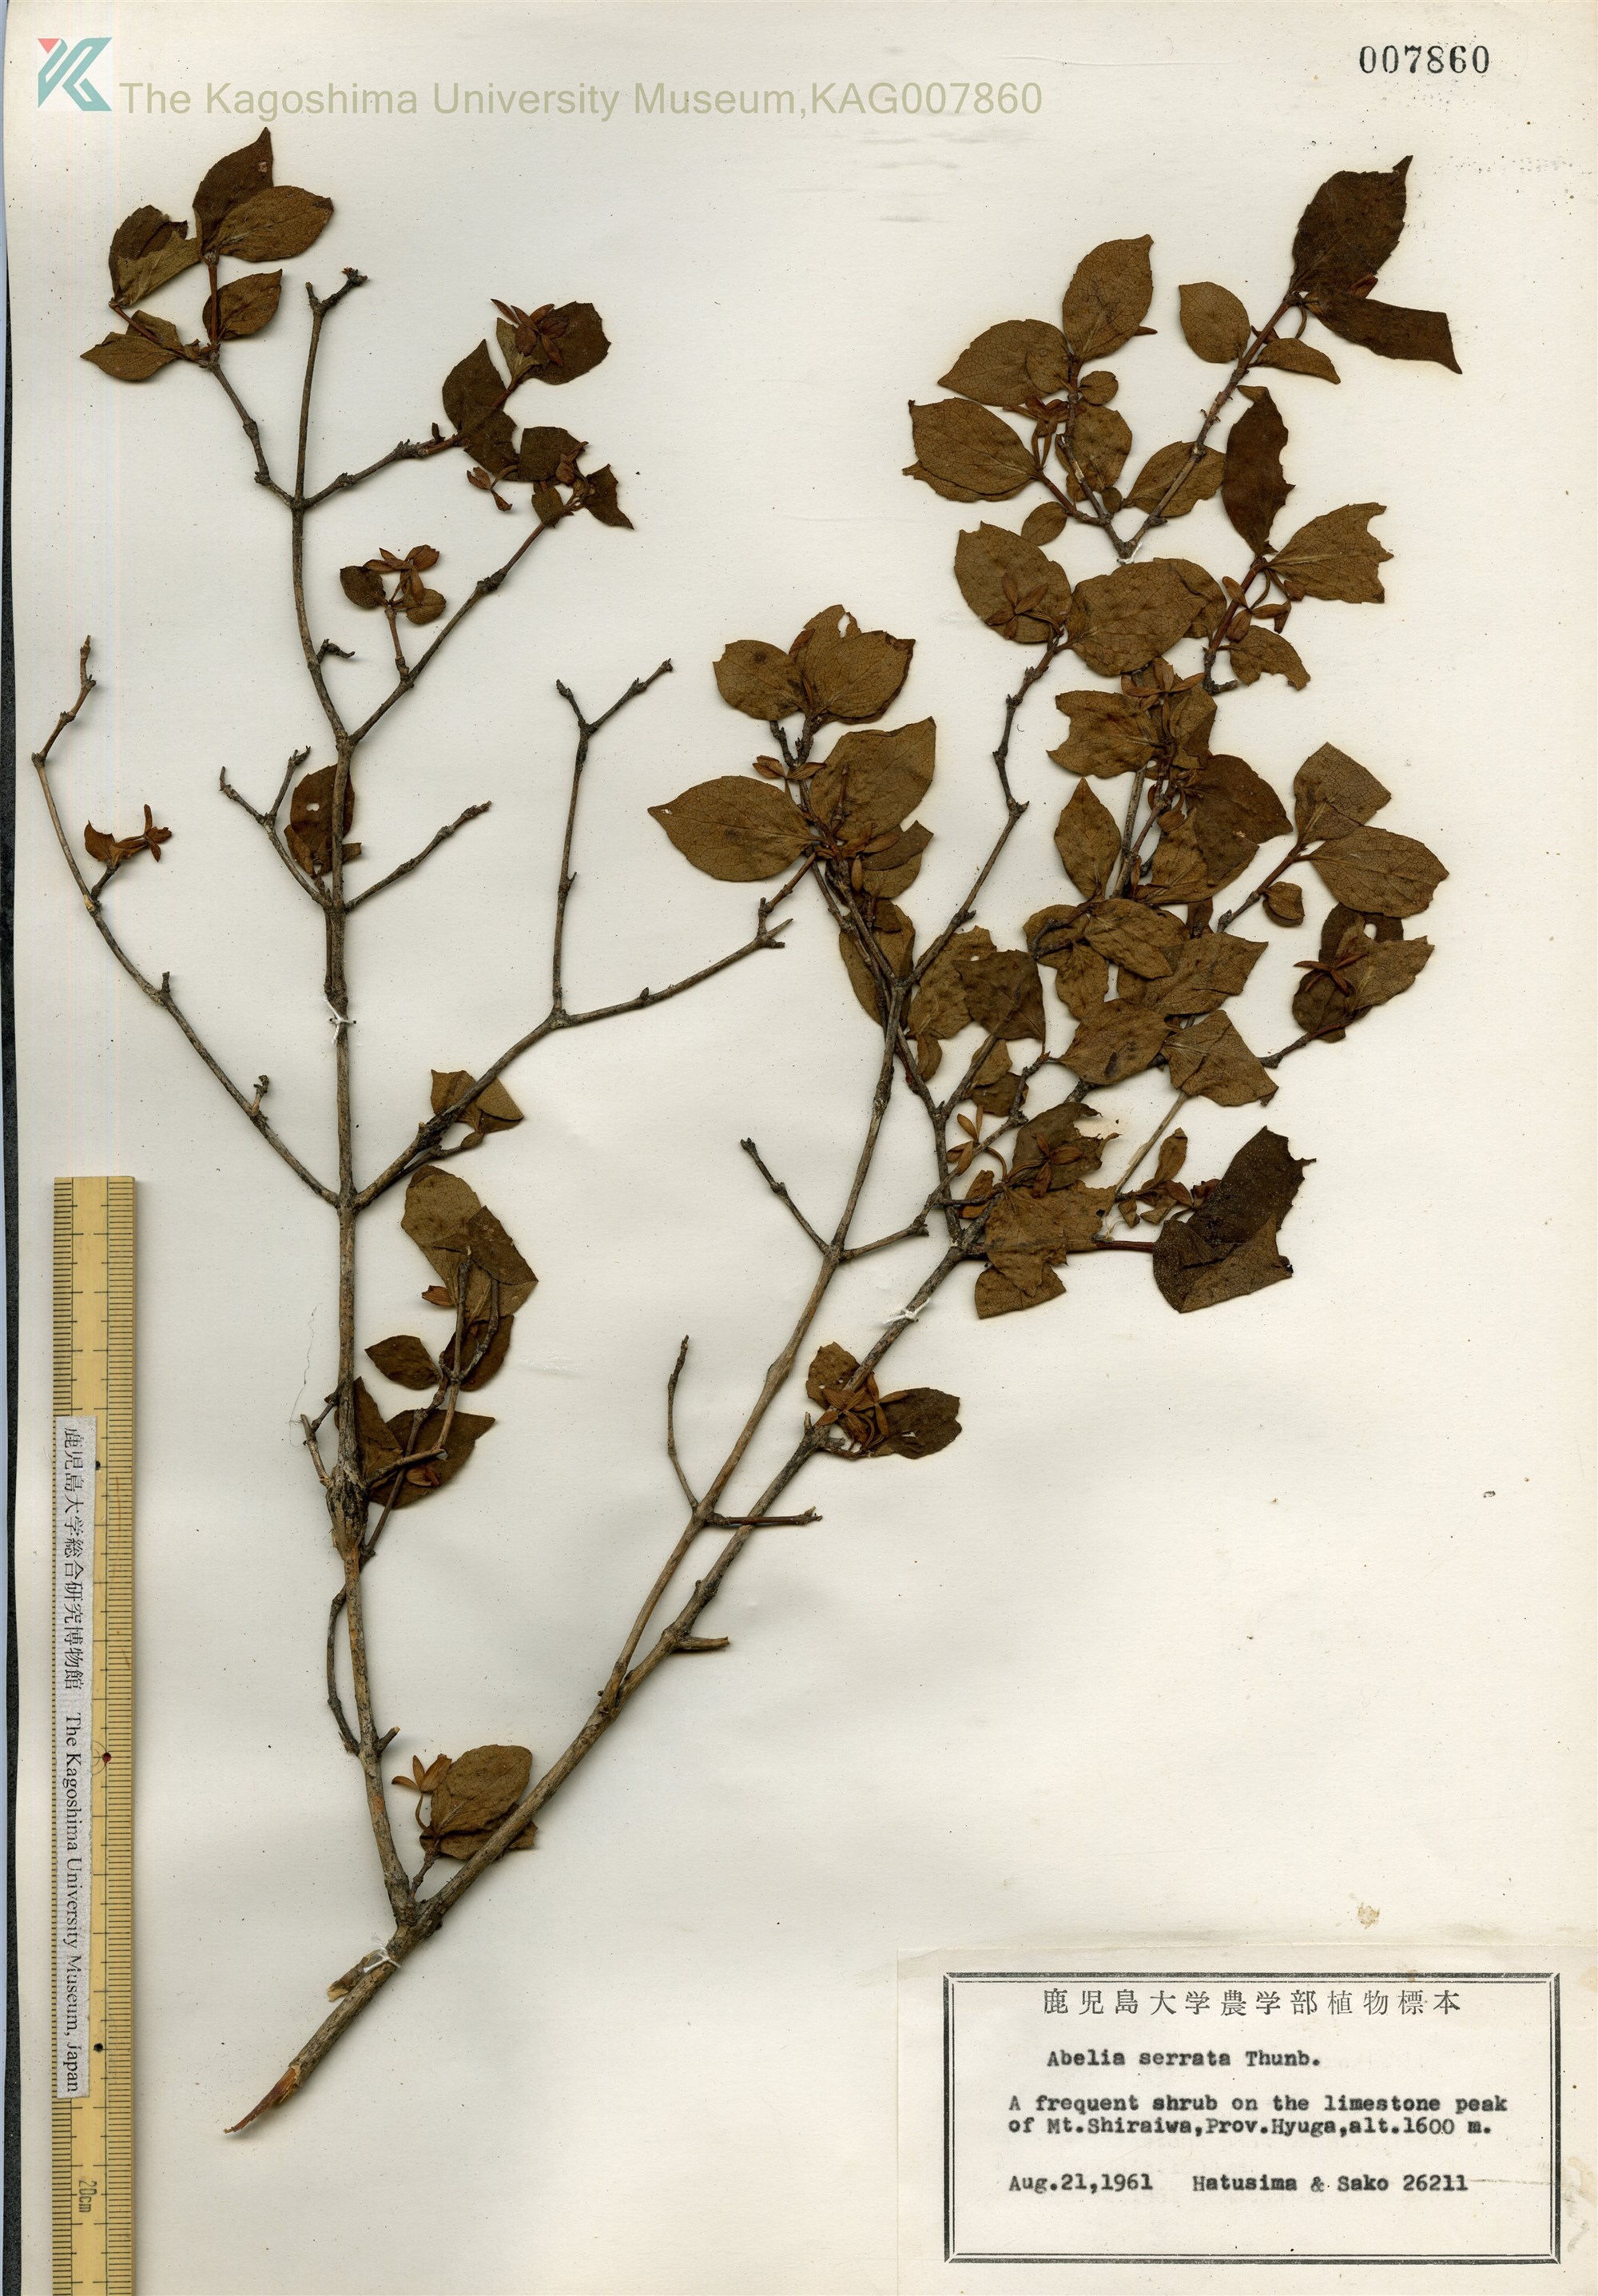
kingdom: Plantae
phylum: Tracheophyta
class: Magnoliopsida
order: Dipsacales
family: Caprifoliaceae
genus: Diabelia
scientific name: Diabelia serrata
